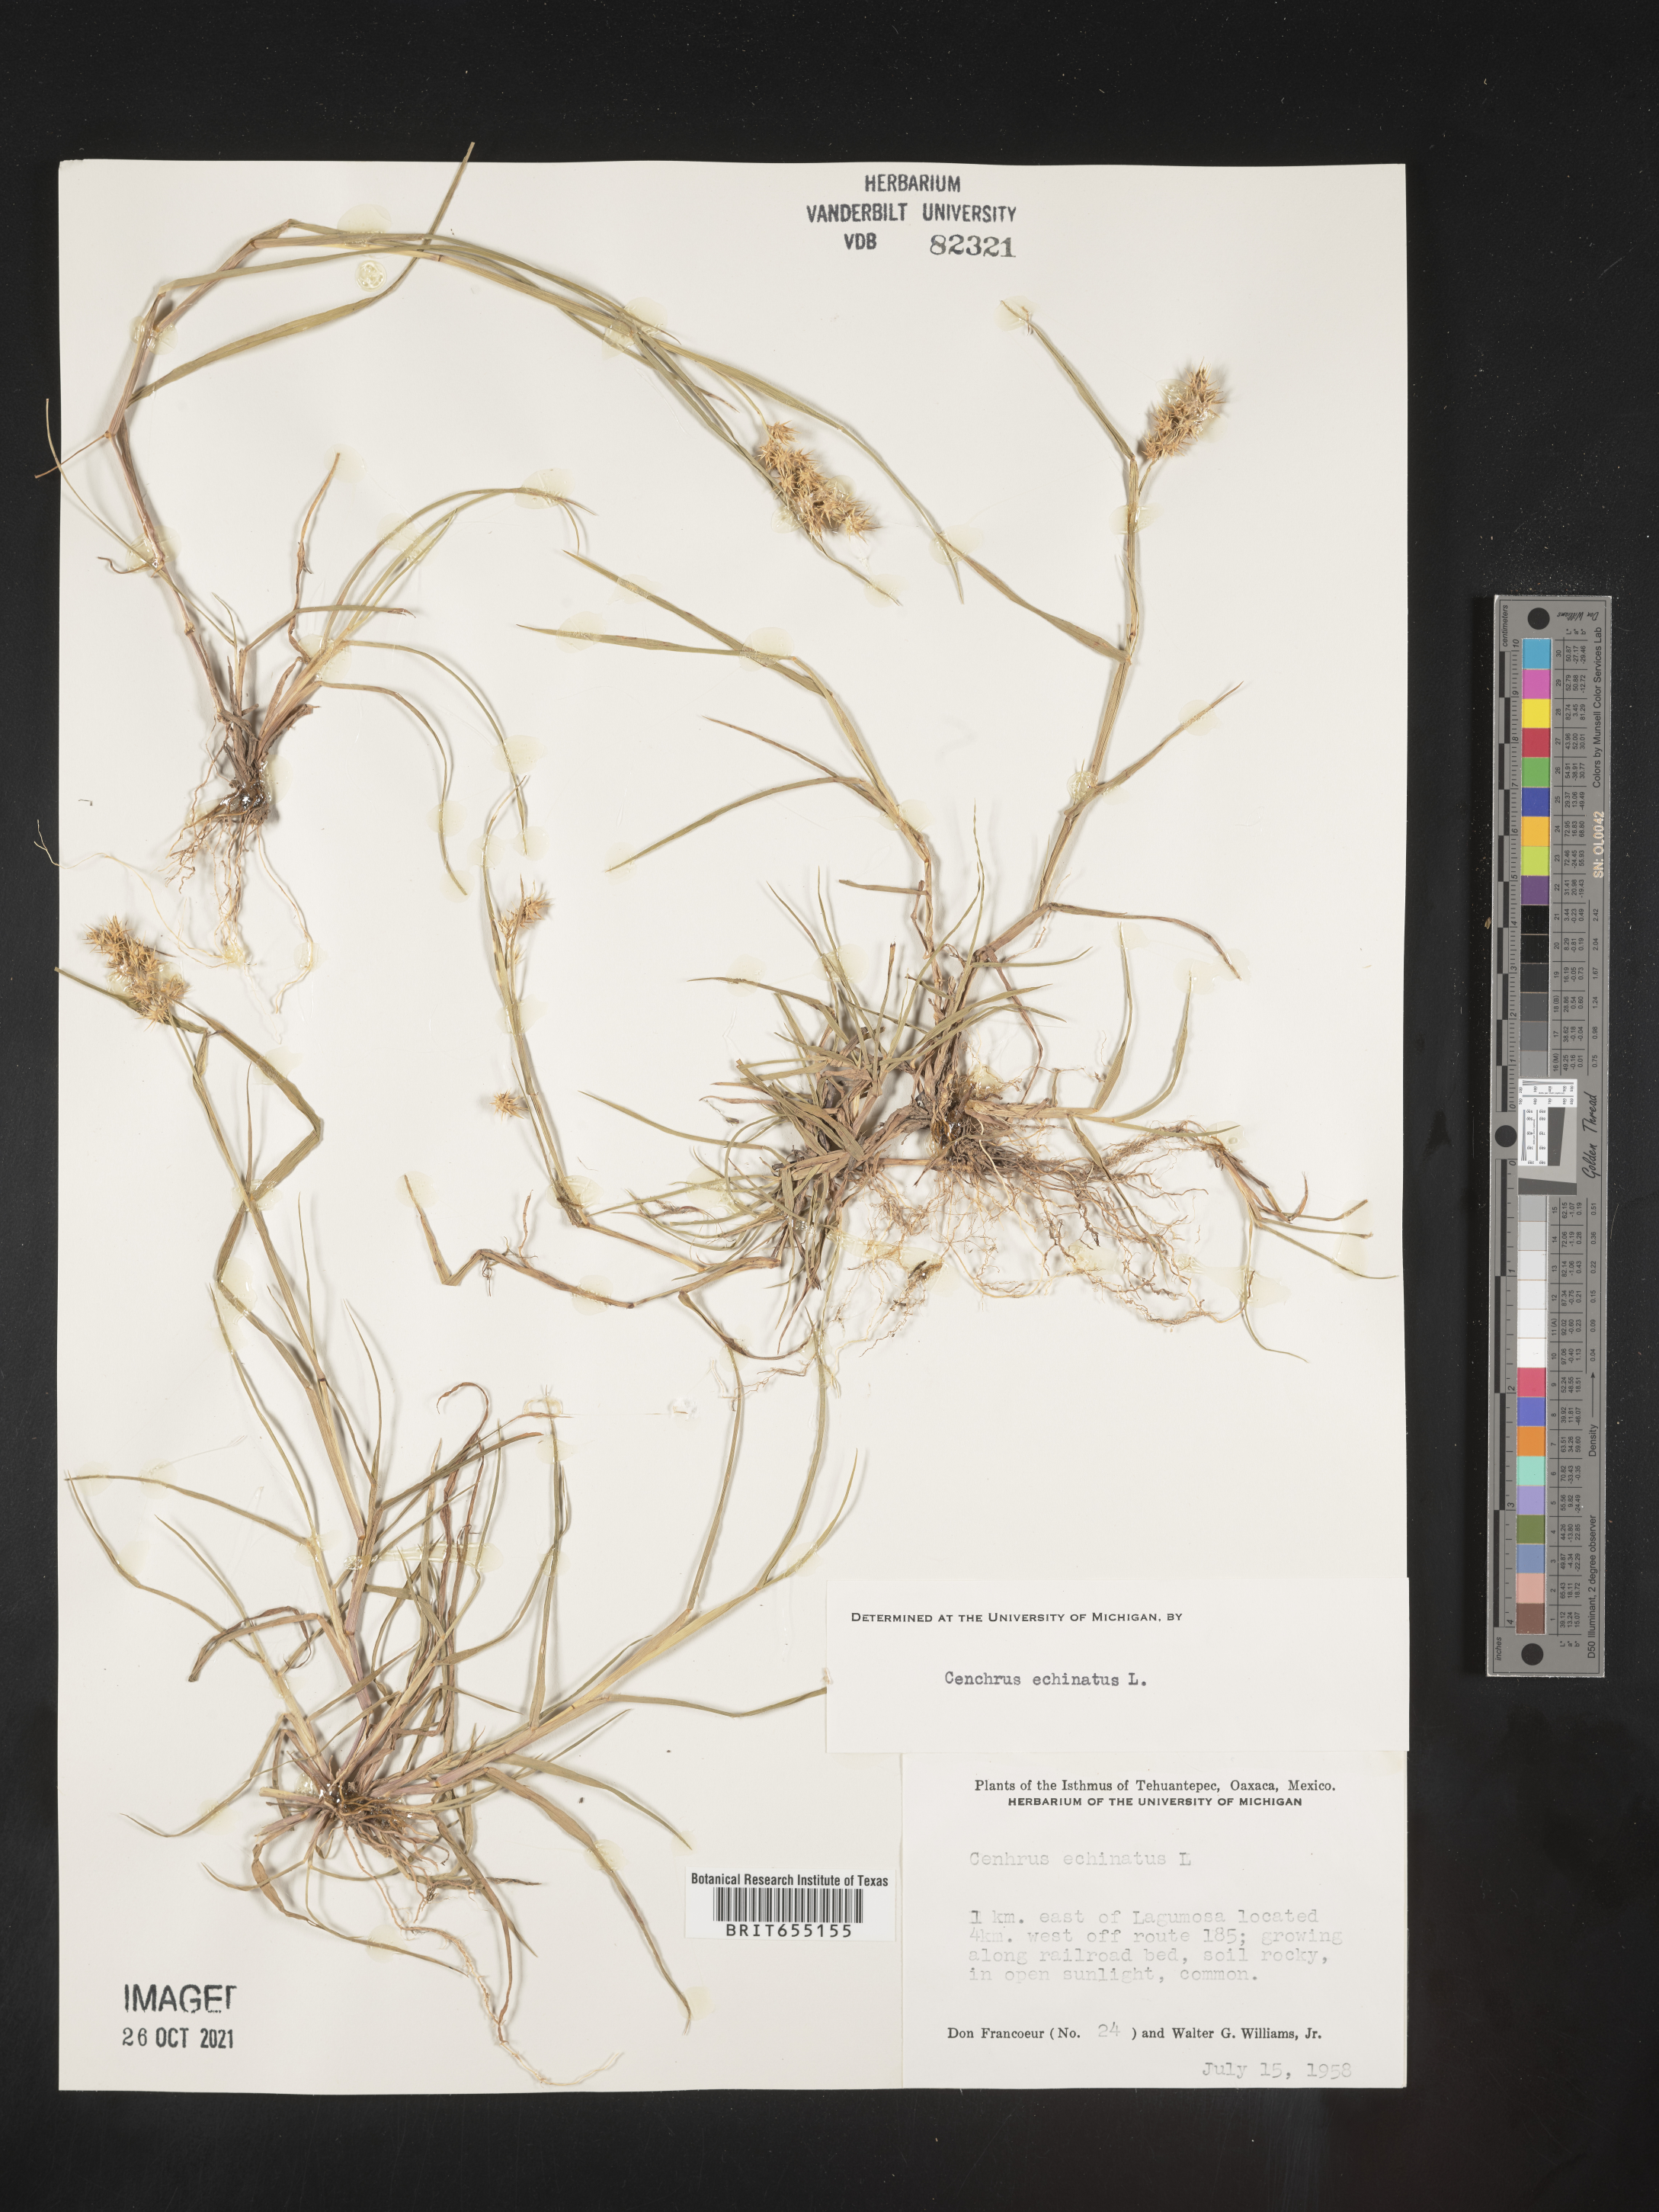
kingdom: Plantae
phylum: Tracheophyta
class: Liliopsida
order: Poales
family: Poaceae
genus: Cenchrus
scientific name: Cenchrus
